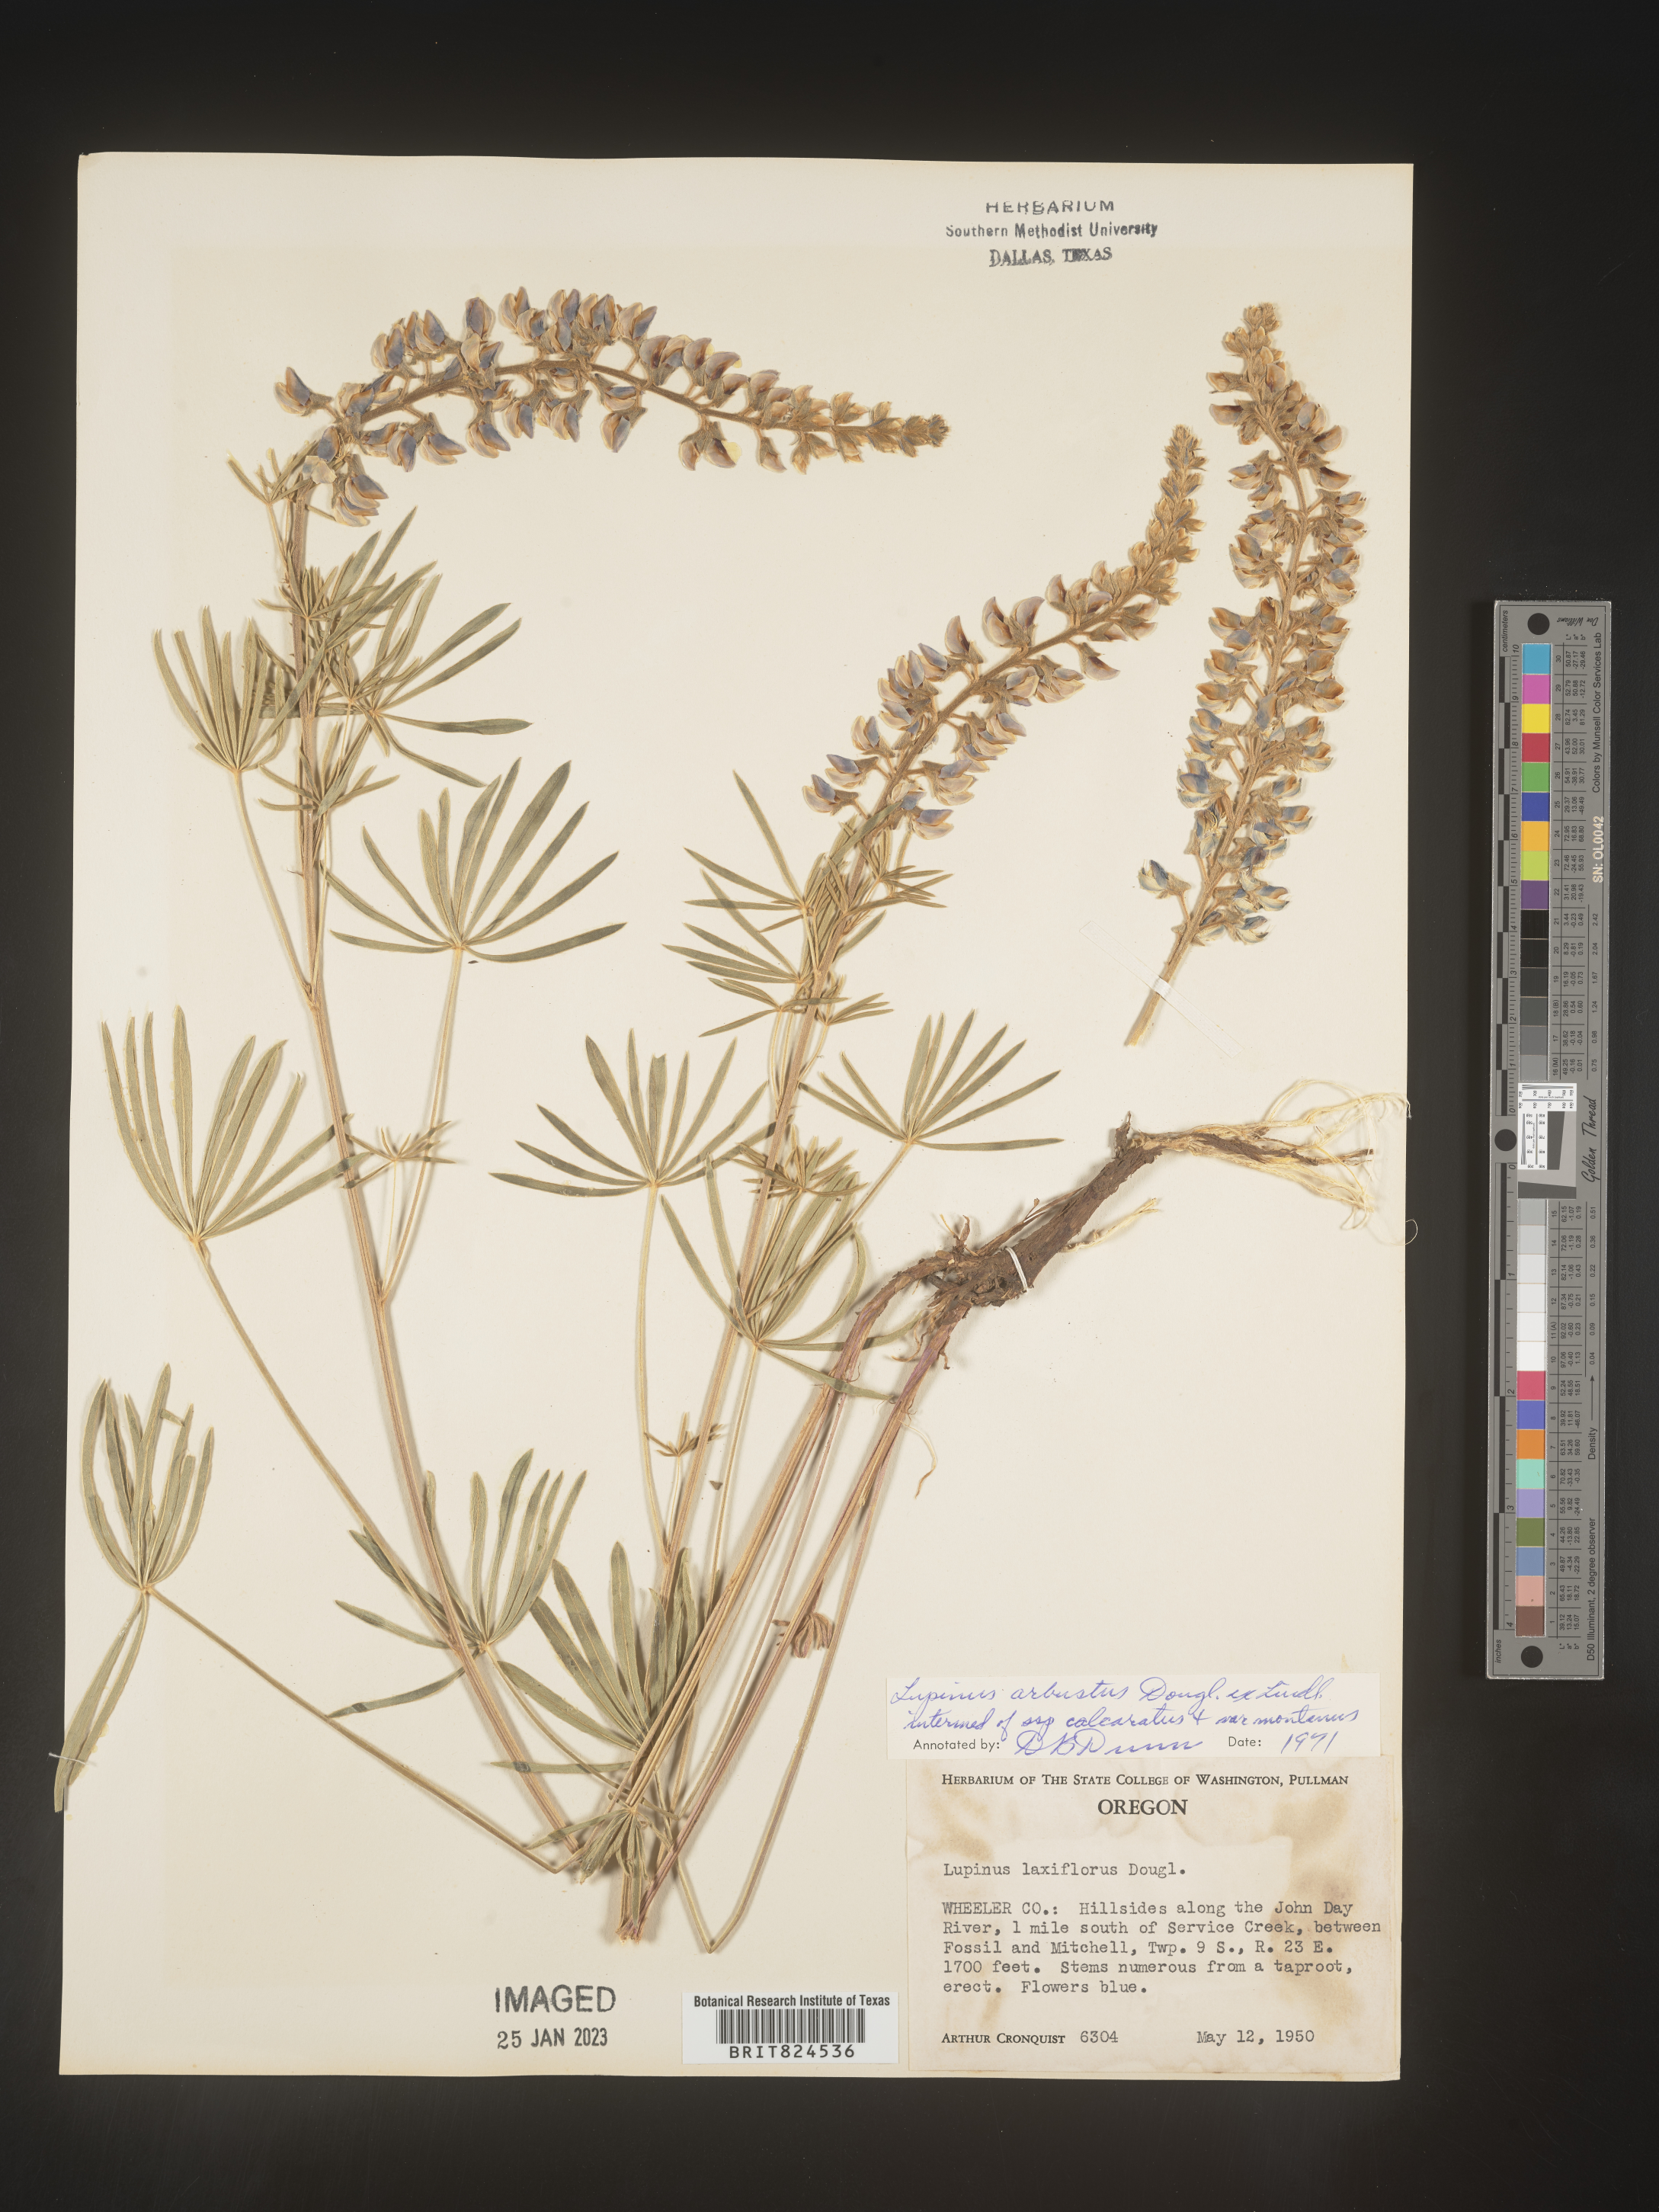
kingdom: Plantae
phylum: Tracheophyta
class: Magnoliopsida
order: Fabales
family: Fabaceae
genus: Lupinus
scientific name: Lupinus arbustus
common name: Montana lupine
